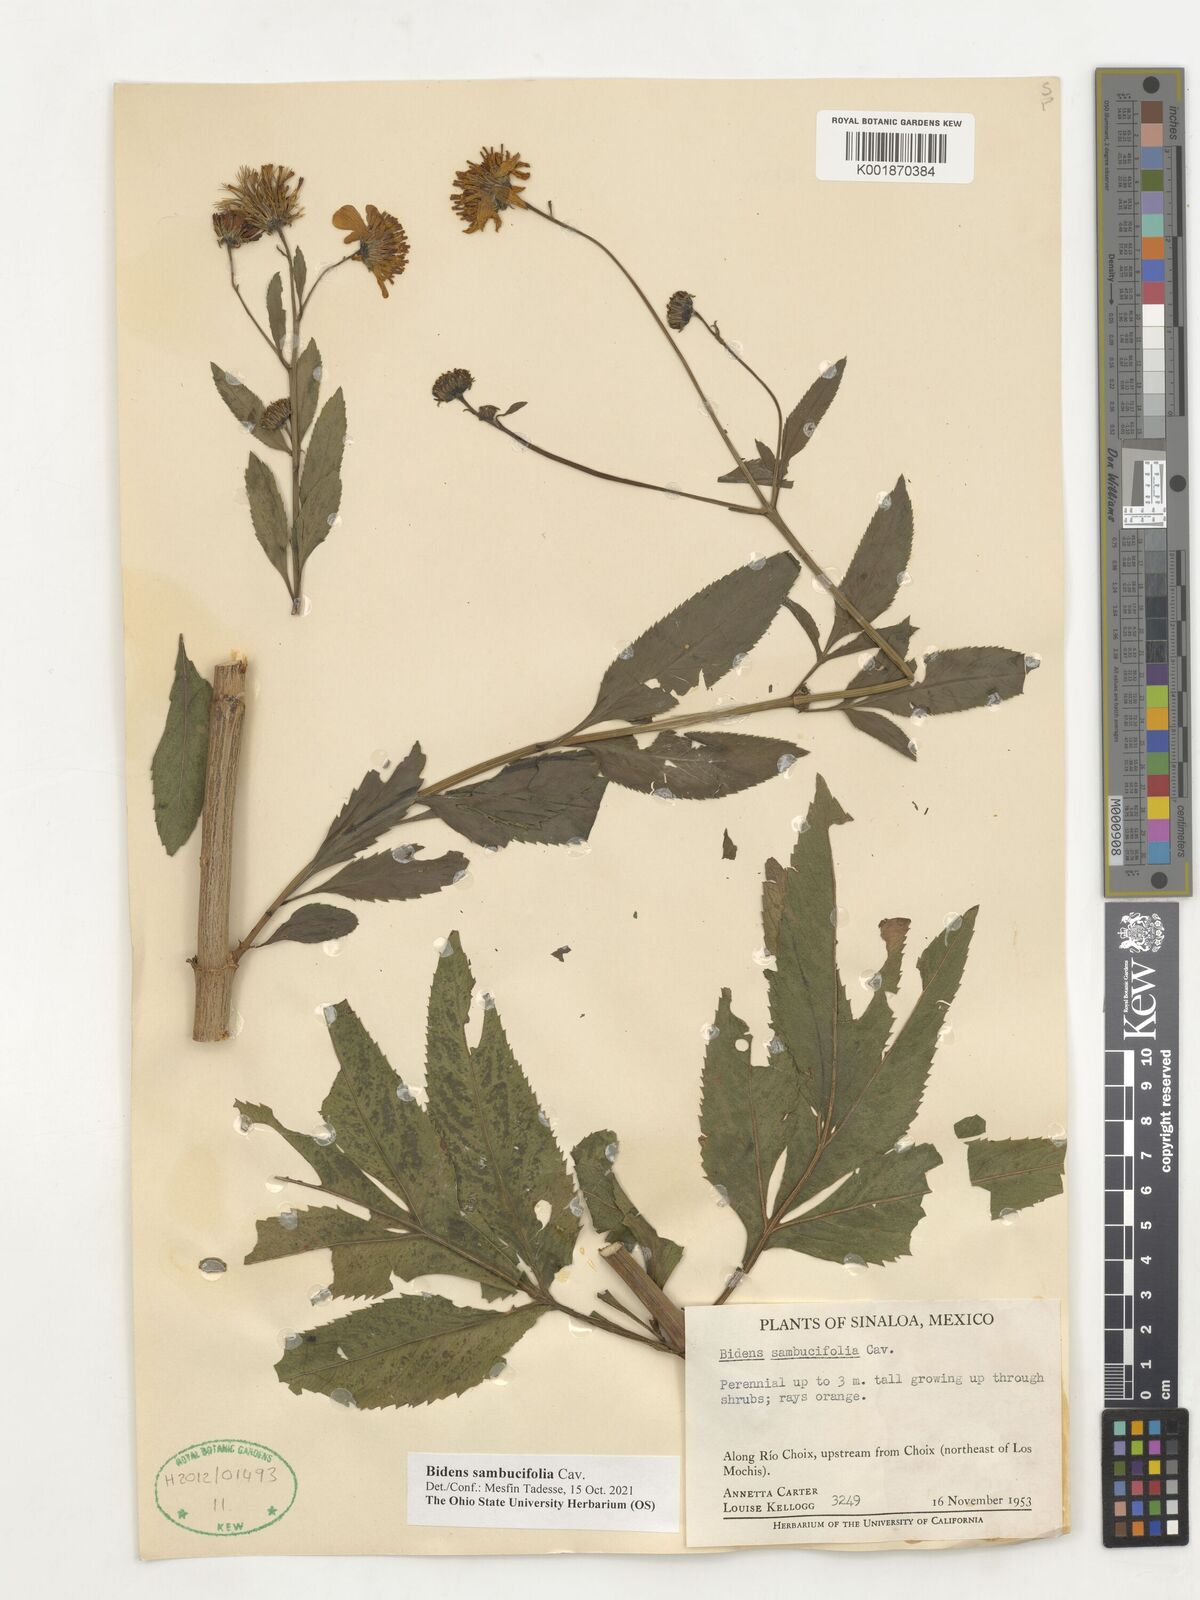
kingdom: Plantae
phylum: Tracheophyta
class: Magnoliopsida
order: Asterales
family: Asteraceae
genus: Bidens
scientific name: Bidens sambucifolia
